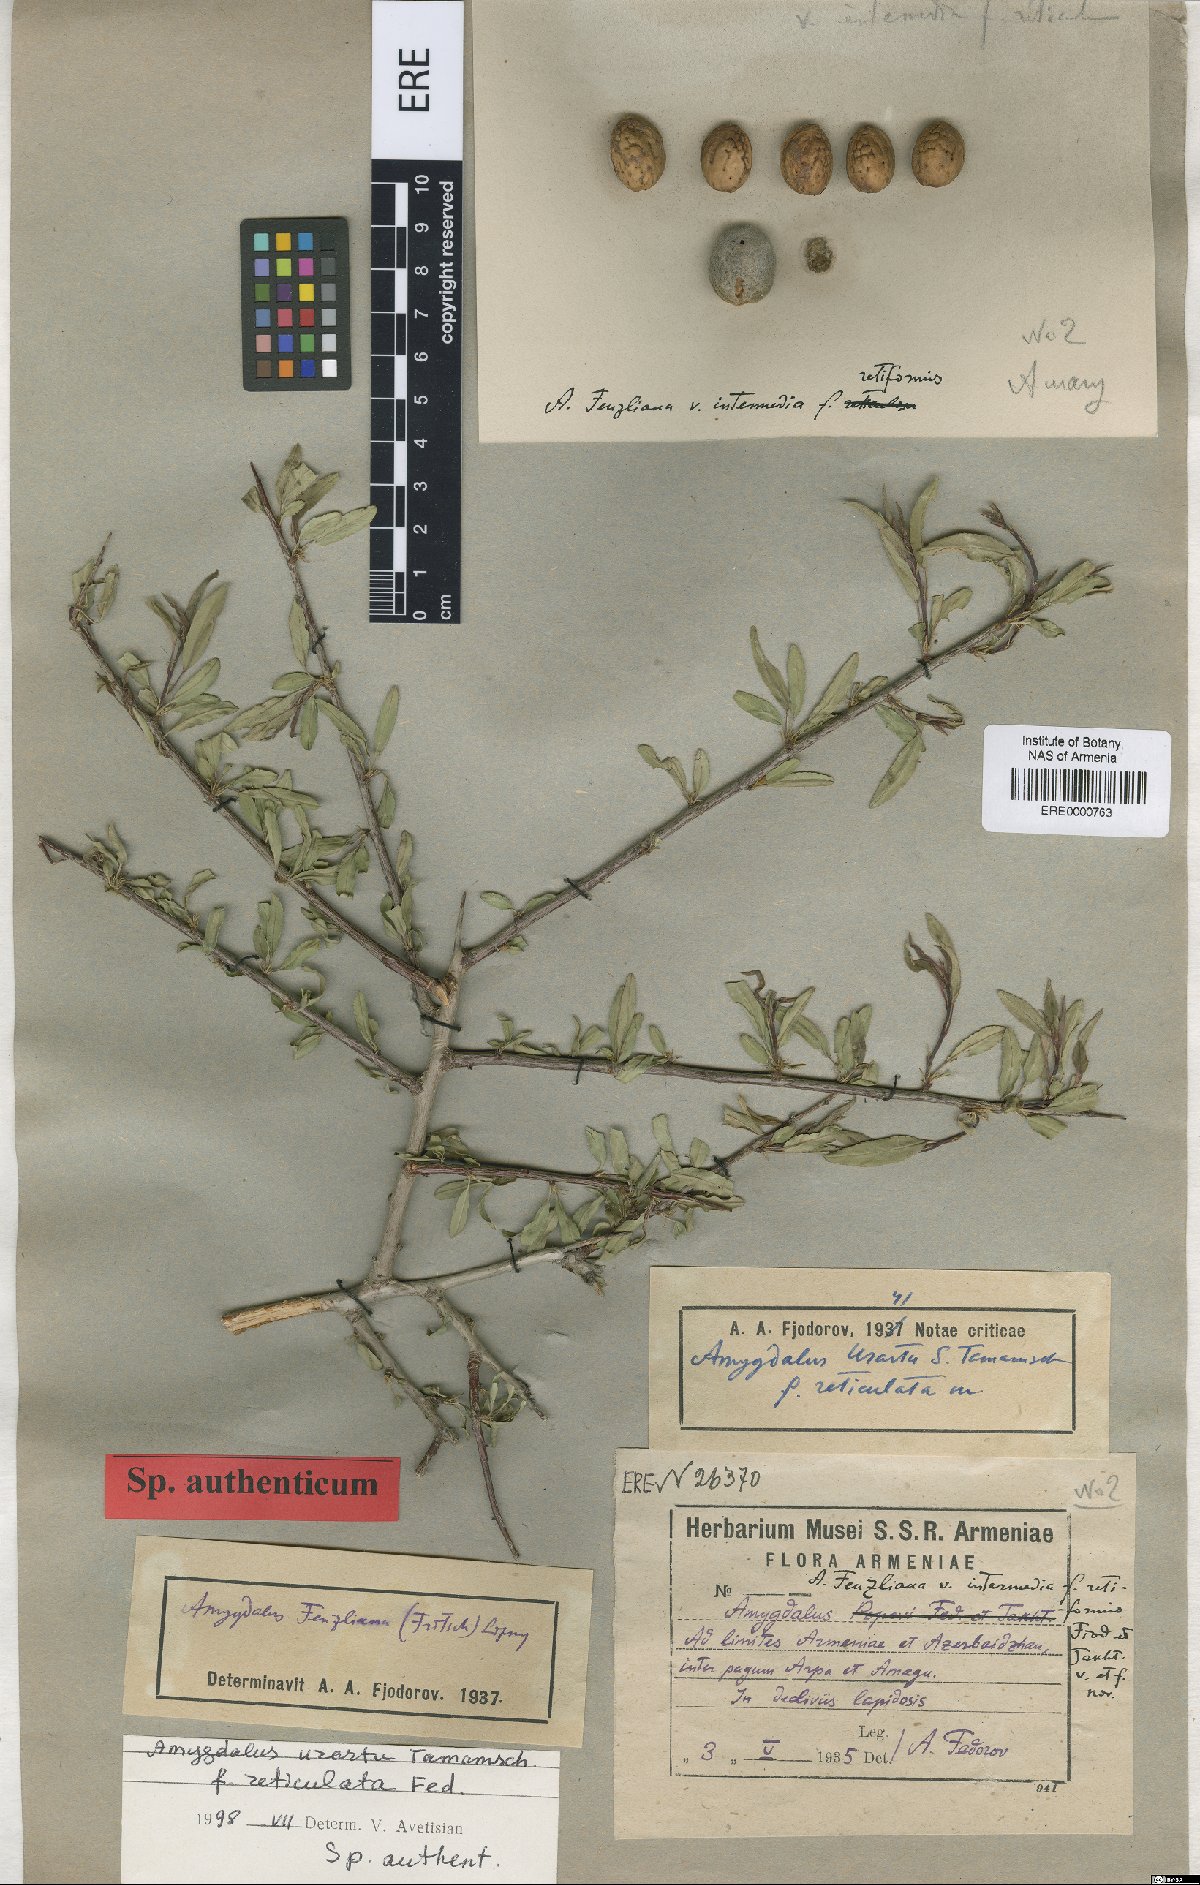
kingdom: Plantae
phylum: Tracheophyta
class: Magnoliopsida
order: Rosales
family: Rosaceae
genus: Prunus
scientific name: Prunus urartu
